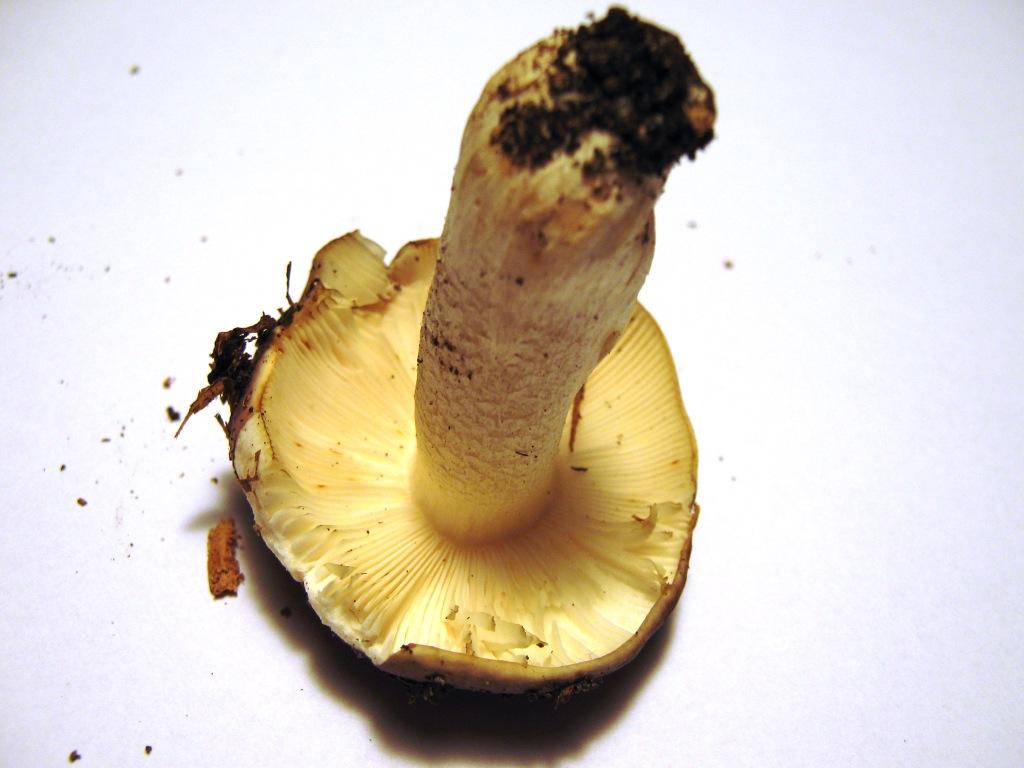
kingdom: Fungi
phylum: Basidiomycota
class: Agaricomycetes
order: Russulales
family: Russulaceae
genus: Russula
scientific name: Russula atropurpurea
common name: purpurbroget skørhat
